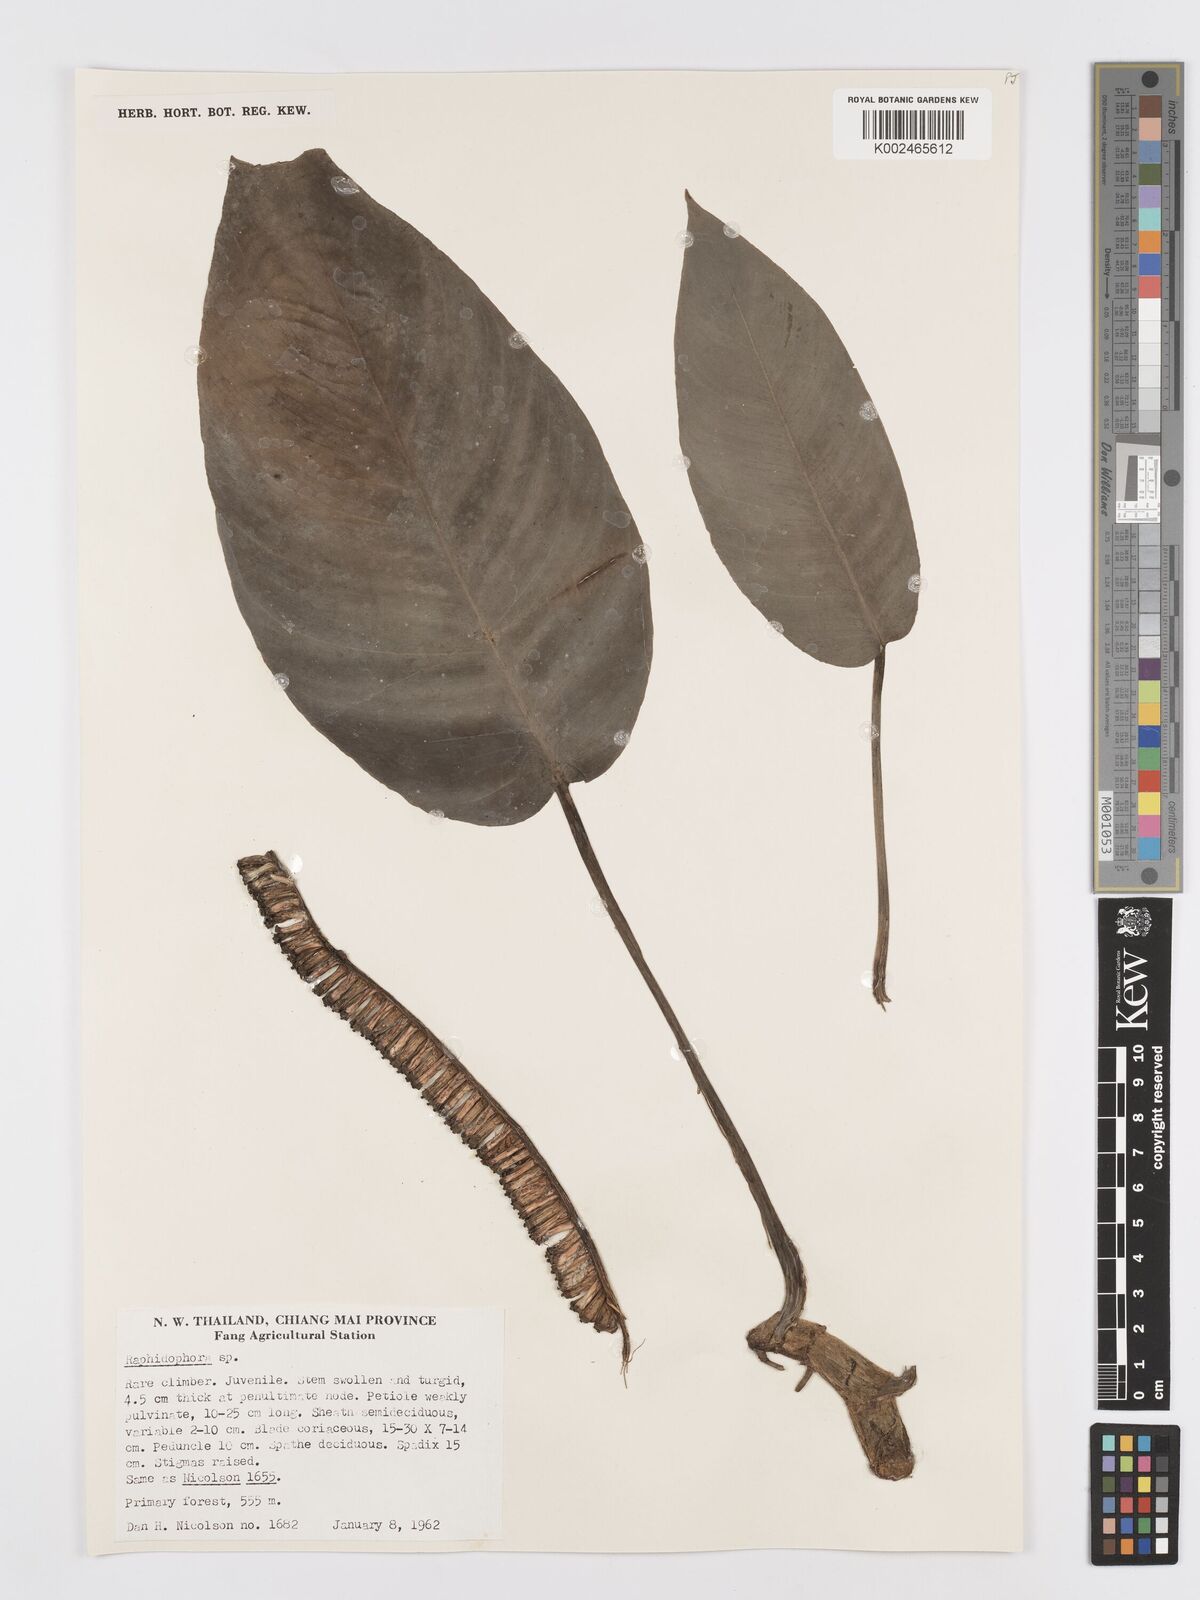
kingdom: Plantae
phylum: Tracheophyta
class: Liliopsida
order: Alismatales
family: Araceae
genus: Rhaphidophora
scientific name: Rhaphidophora megaphylla
